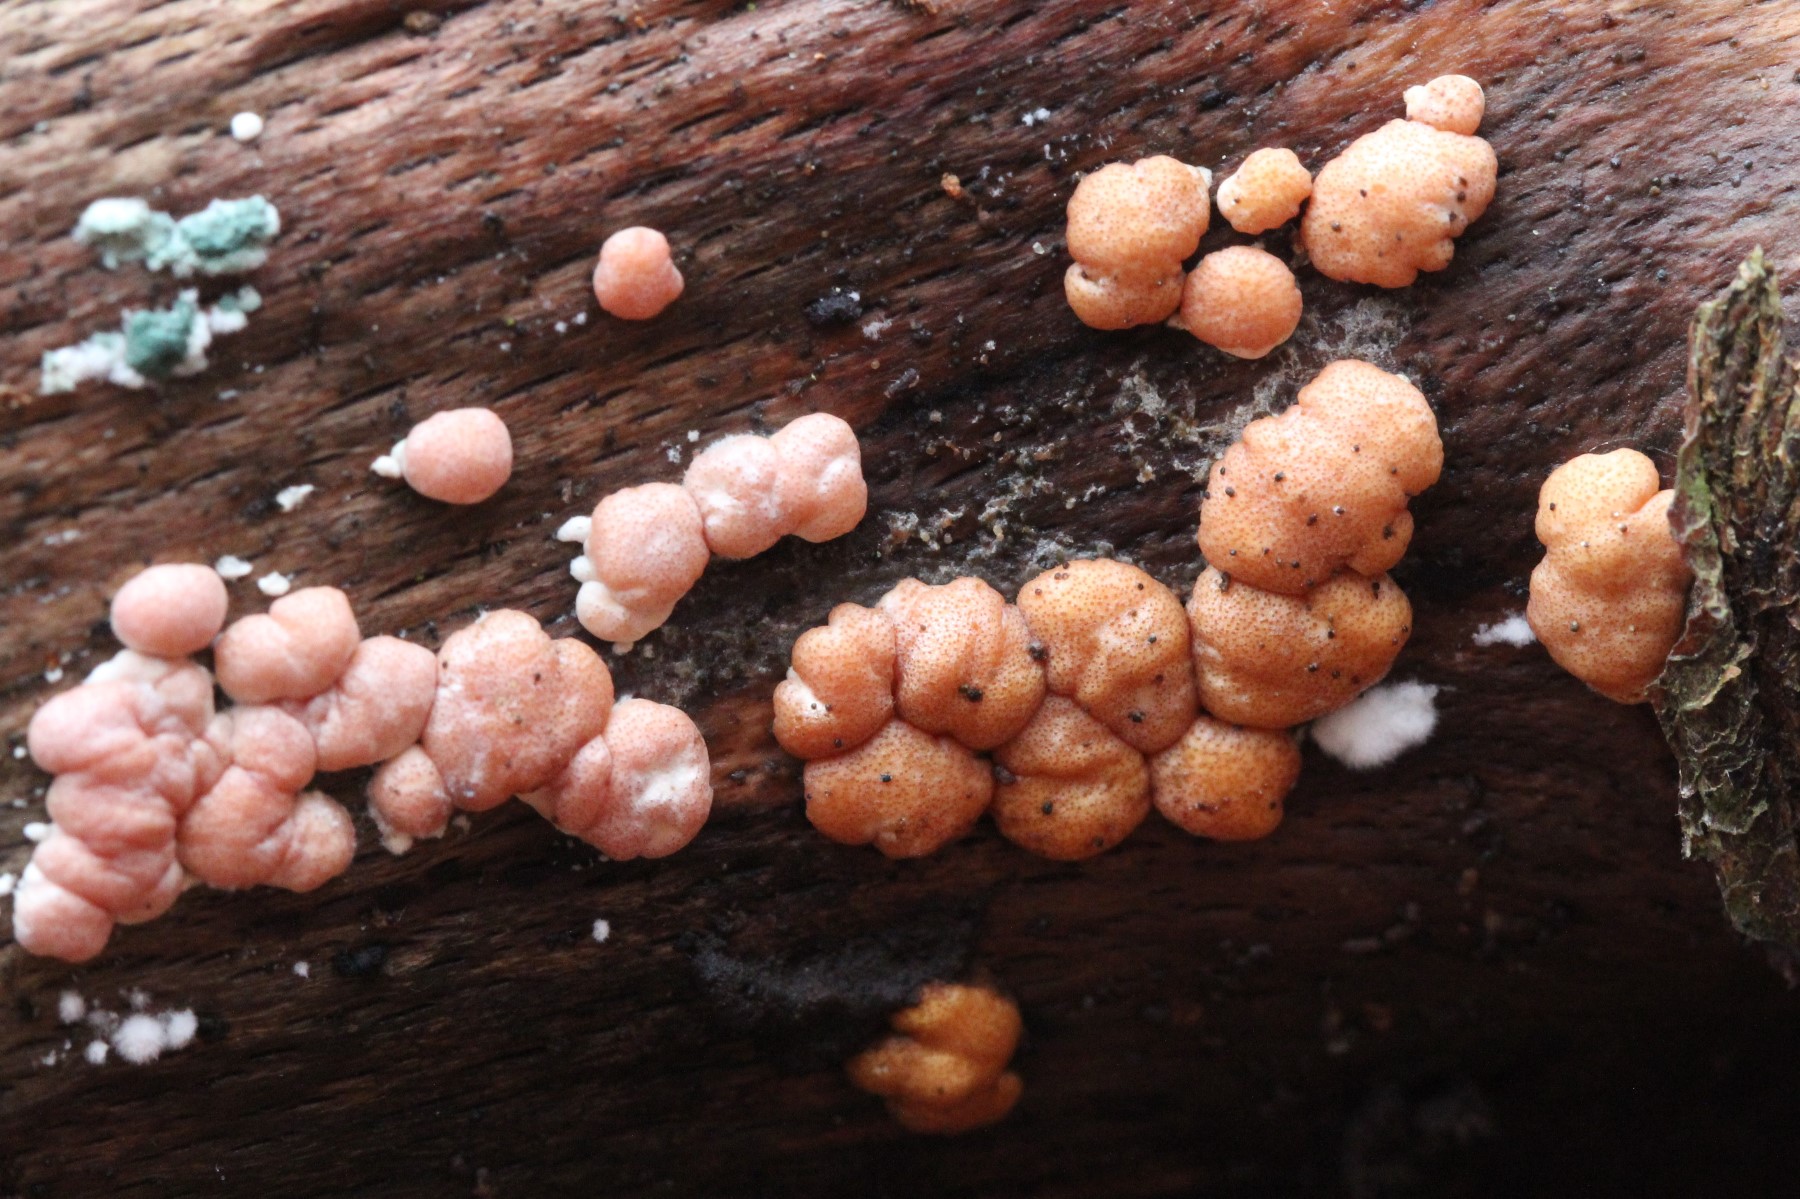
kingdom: Fungi
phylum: Ascomycota
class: Sordariomycetes
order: Hypocreales
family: Hypocreaceae
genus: Trichoderma
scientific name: Trichoderma europaeum
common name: rosabrun kødkerne
